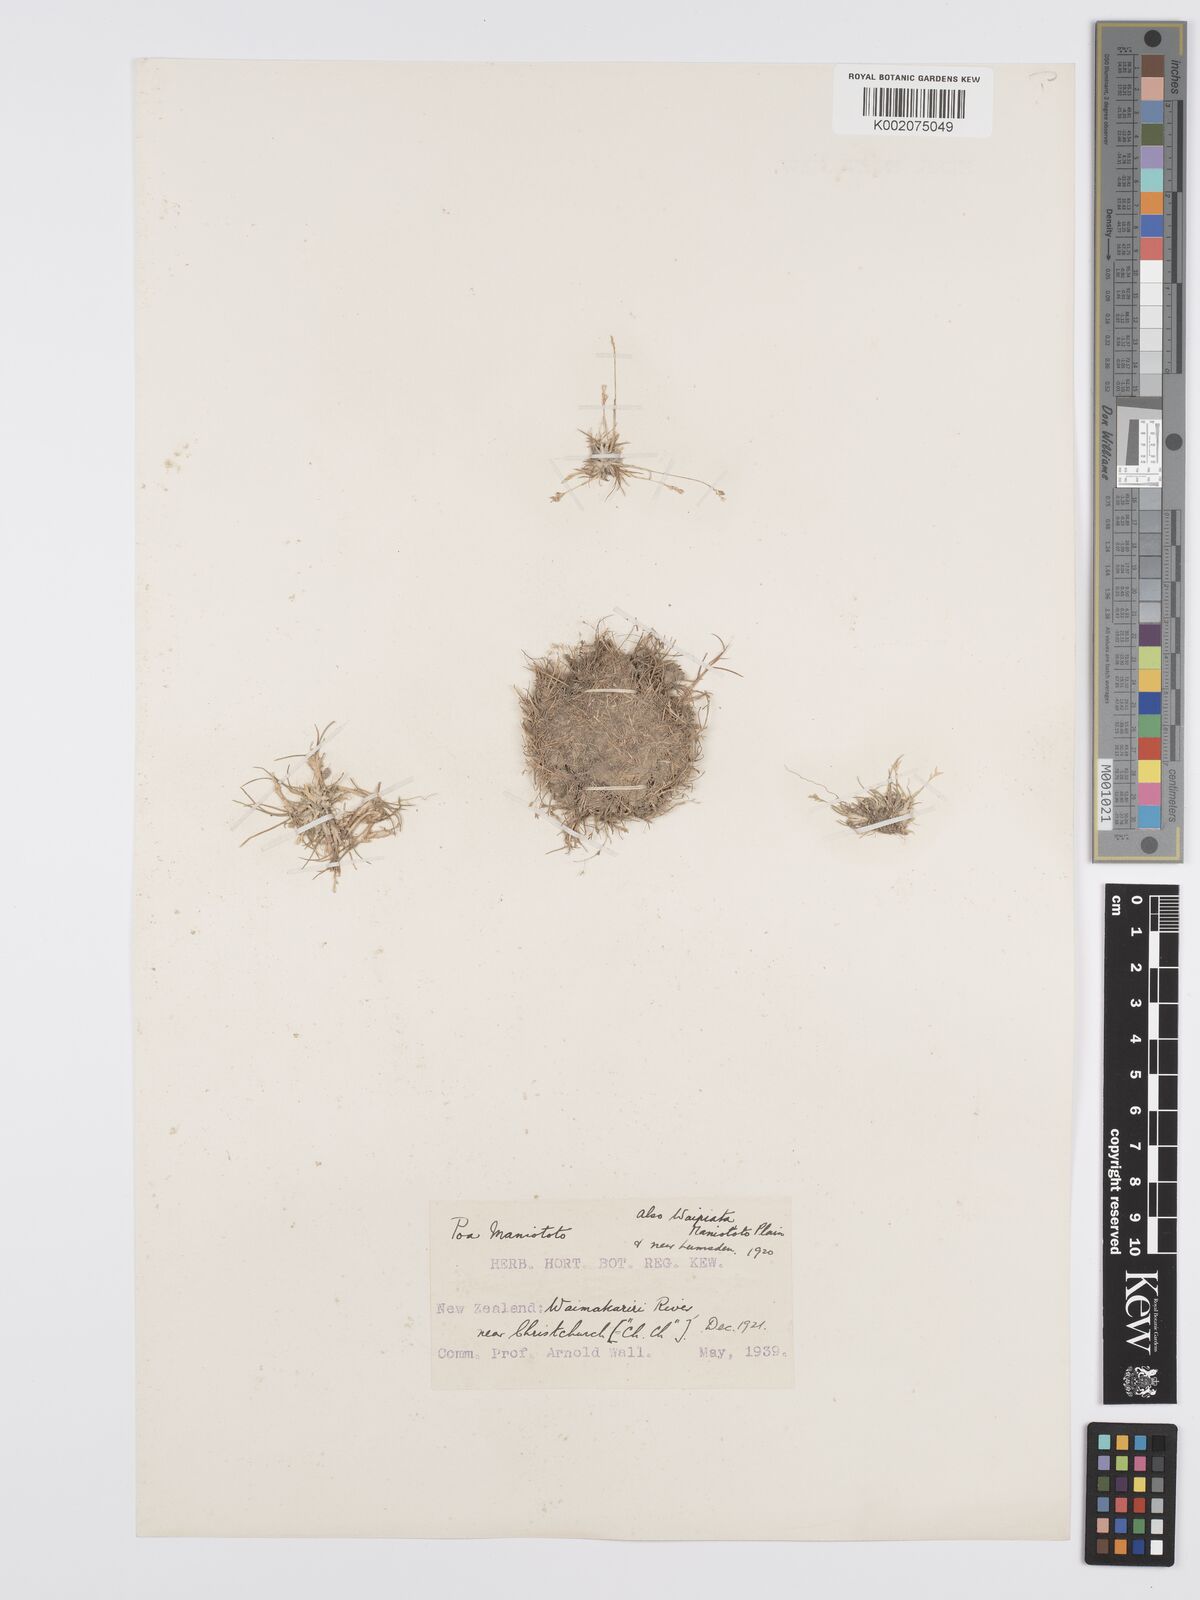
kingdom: Plantae
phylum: Tracheophyta
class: Liliopsida
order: Poales
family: Poaceae
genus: Poa
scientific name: Poa maniototo
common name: Desert poa
